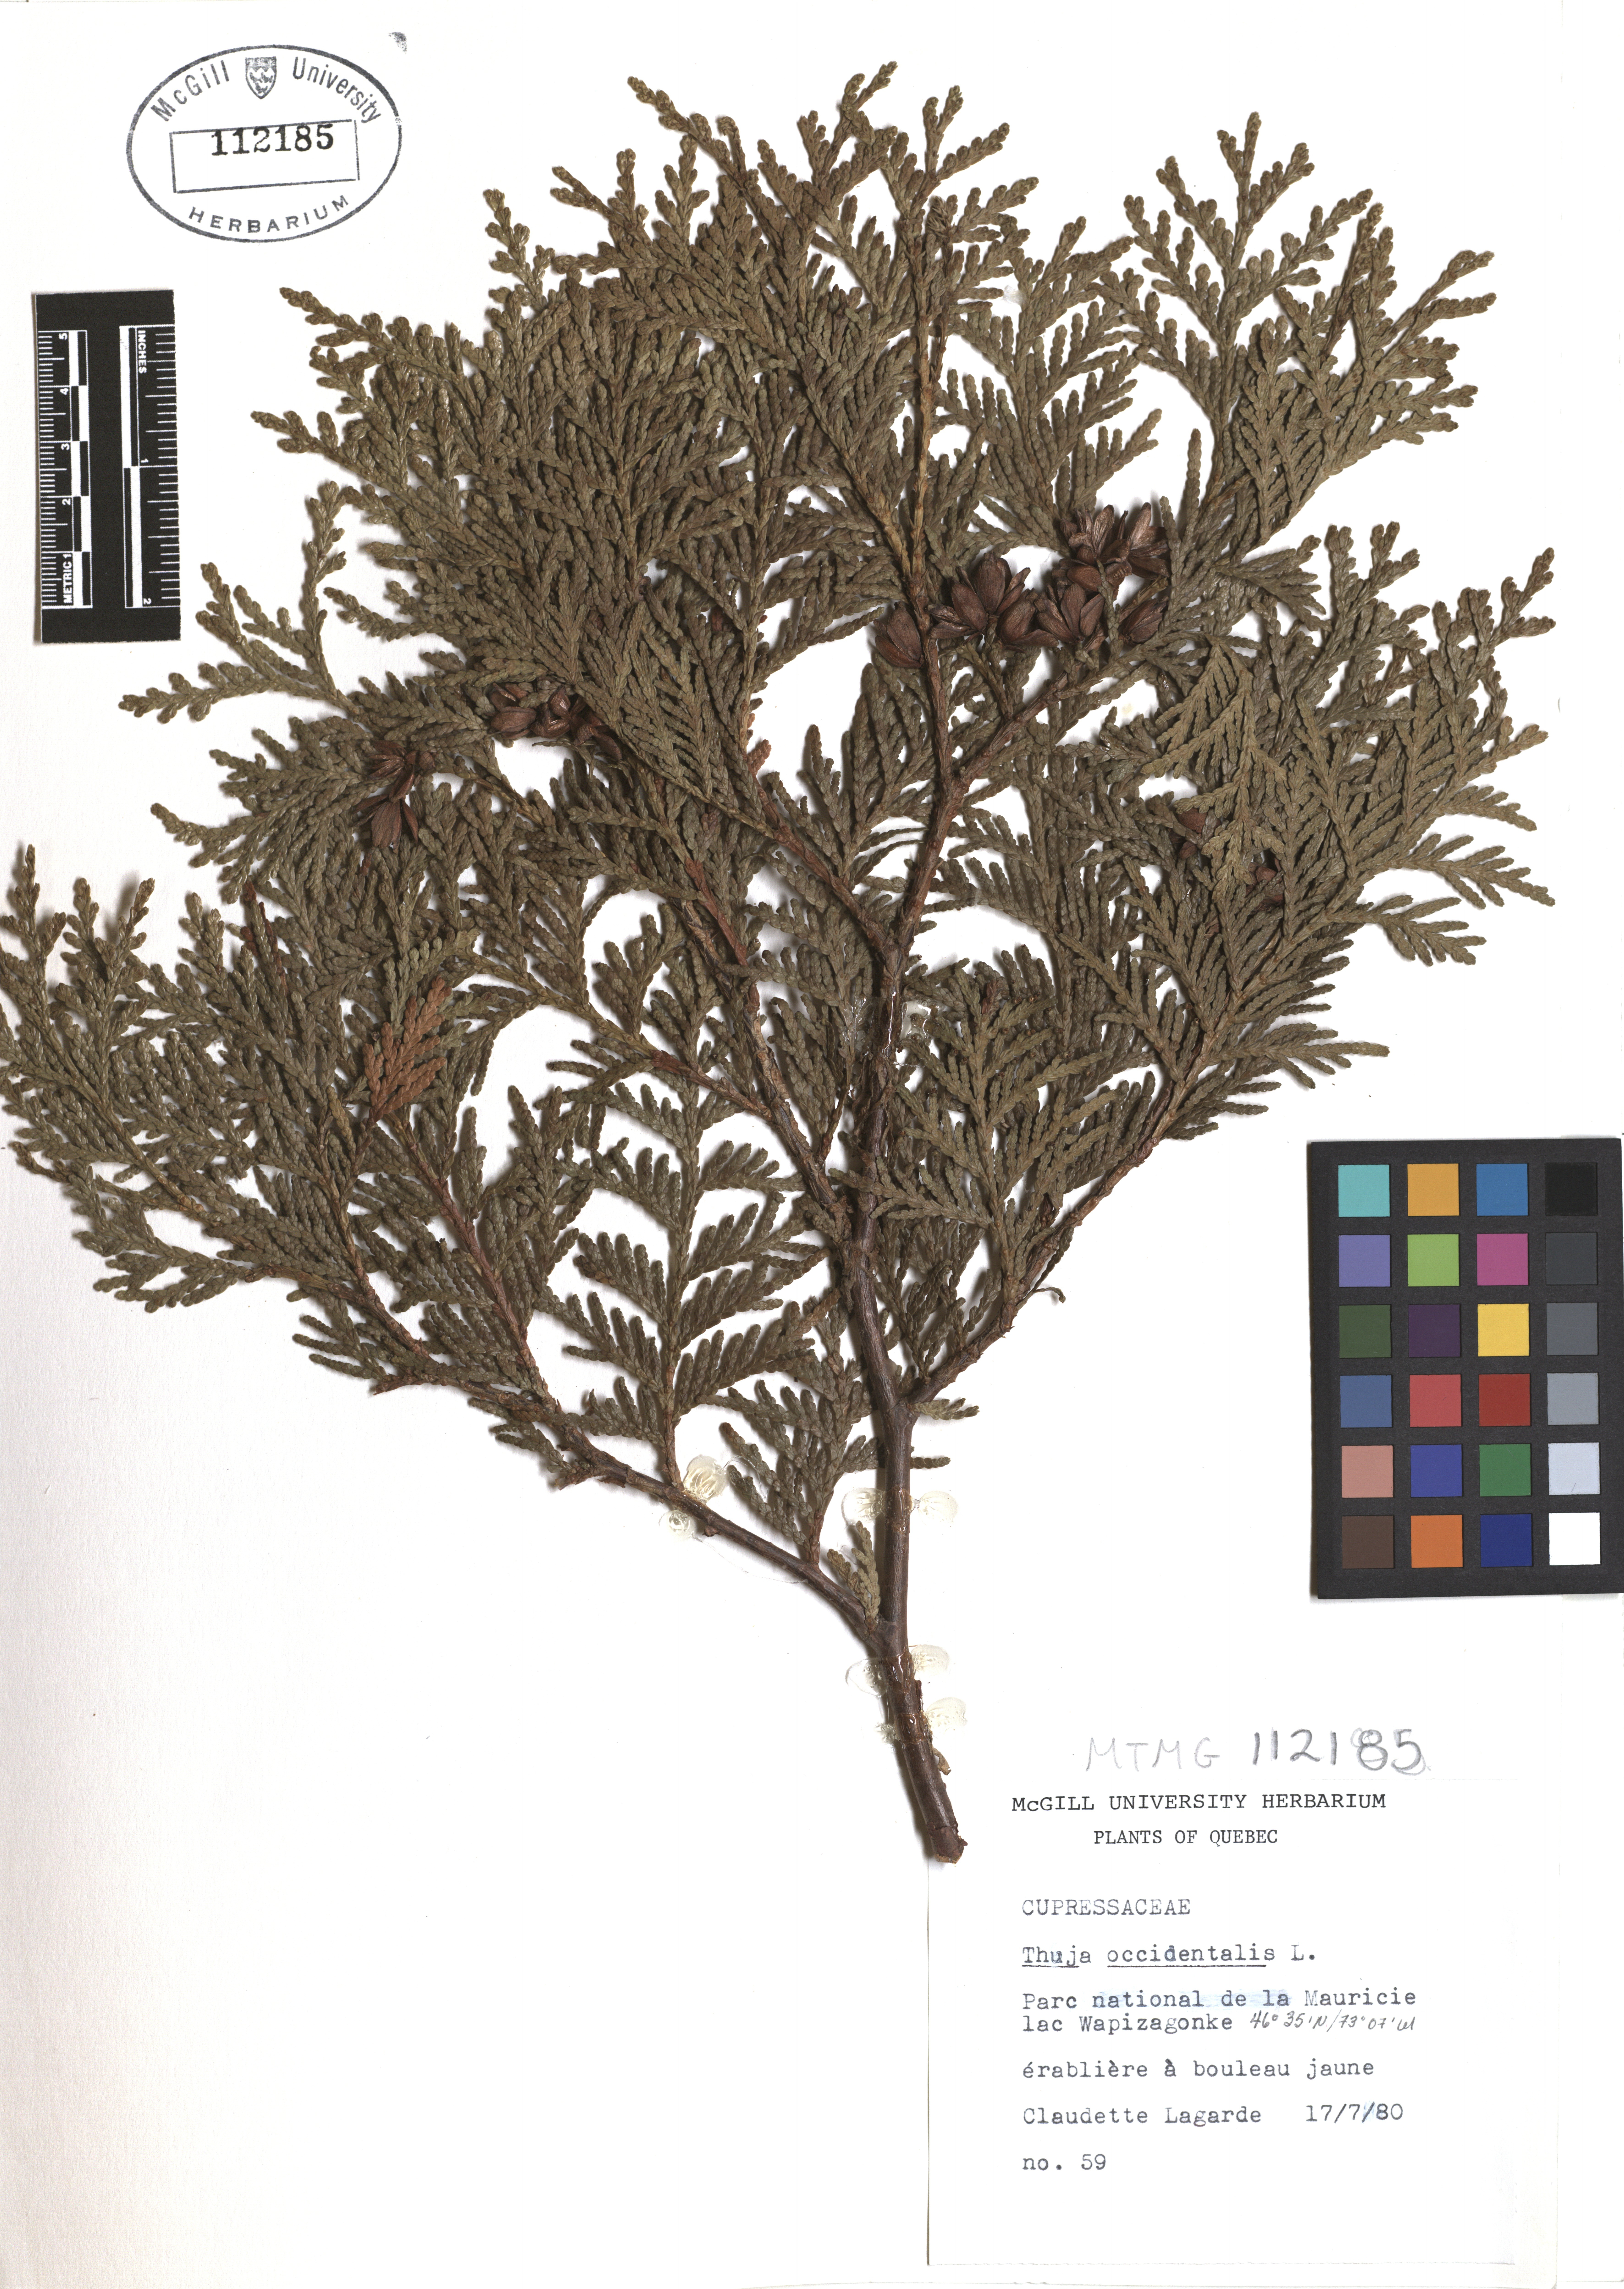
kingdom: Plantae
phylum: Tracheophyta
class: Pinopsida
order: Pinales
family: Cupressaceae
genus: Thuja
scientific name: Thuja occidentalis
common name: Northern white-cedar
